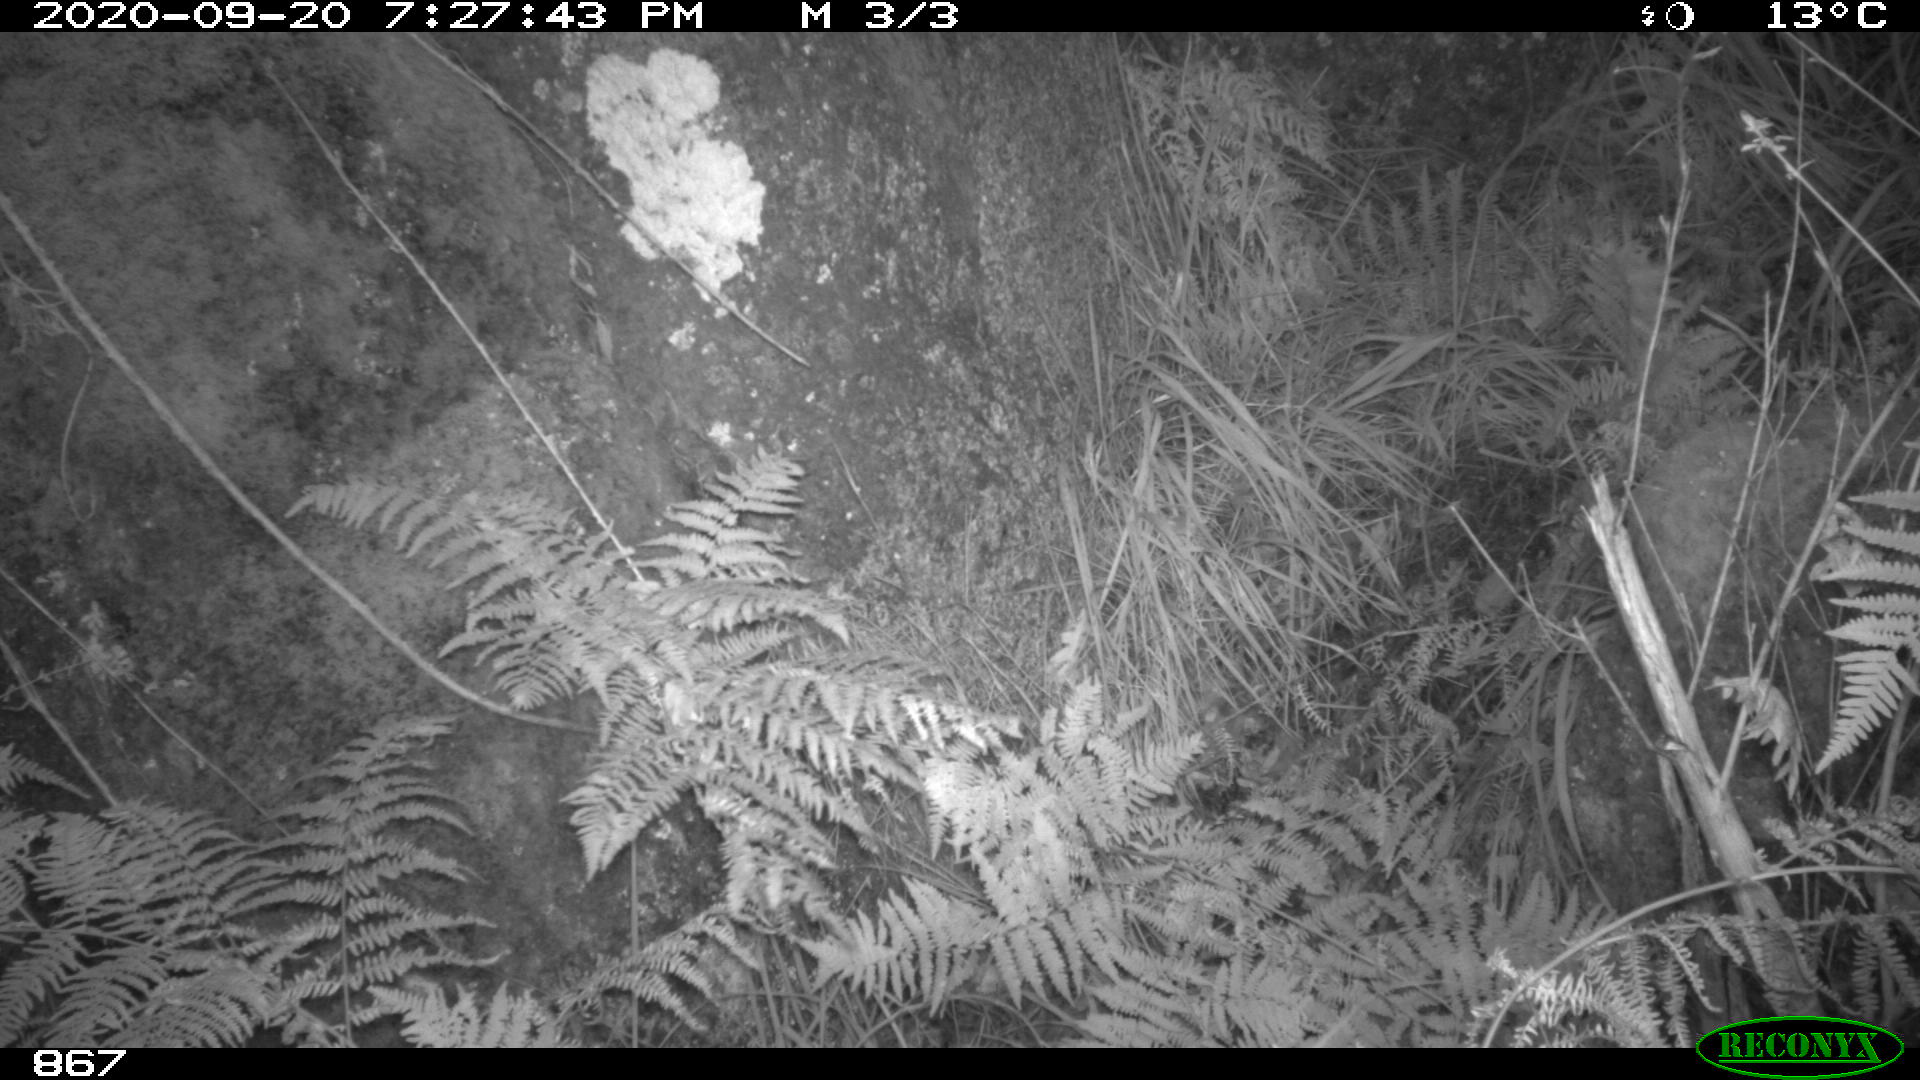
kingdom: Animalia
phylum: Chordata
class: Mammalia
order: Artiodactyla
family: Suidae
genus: Sus
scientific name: Sus scrofa
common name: Wild boar
